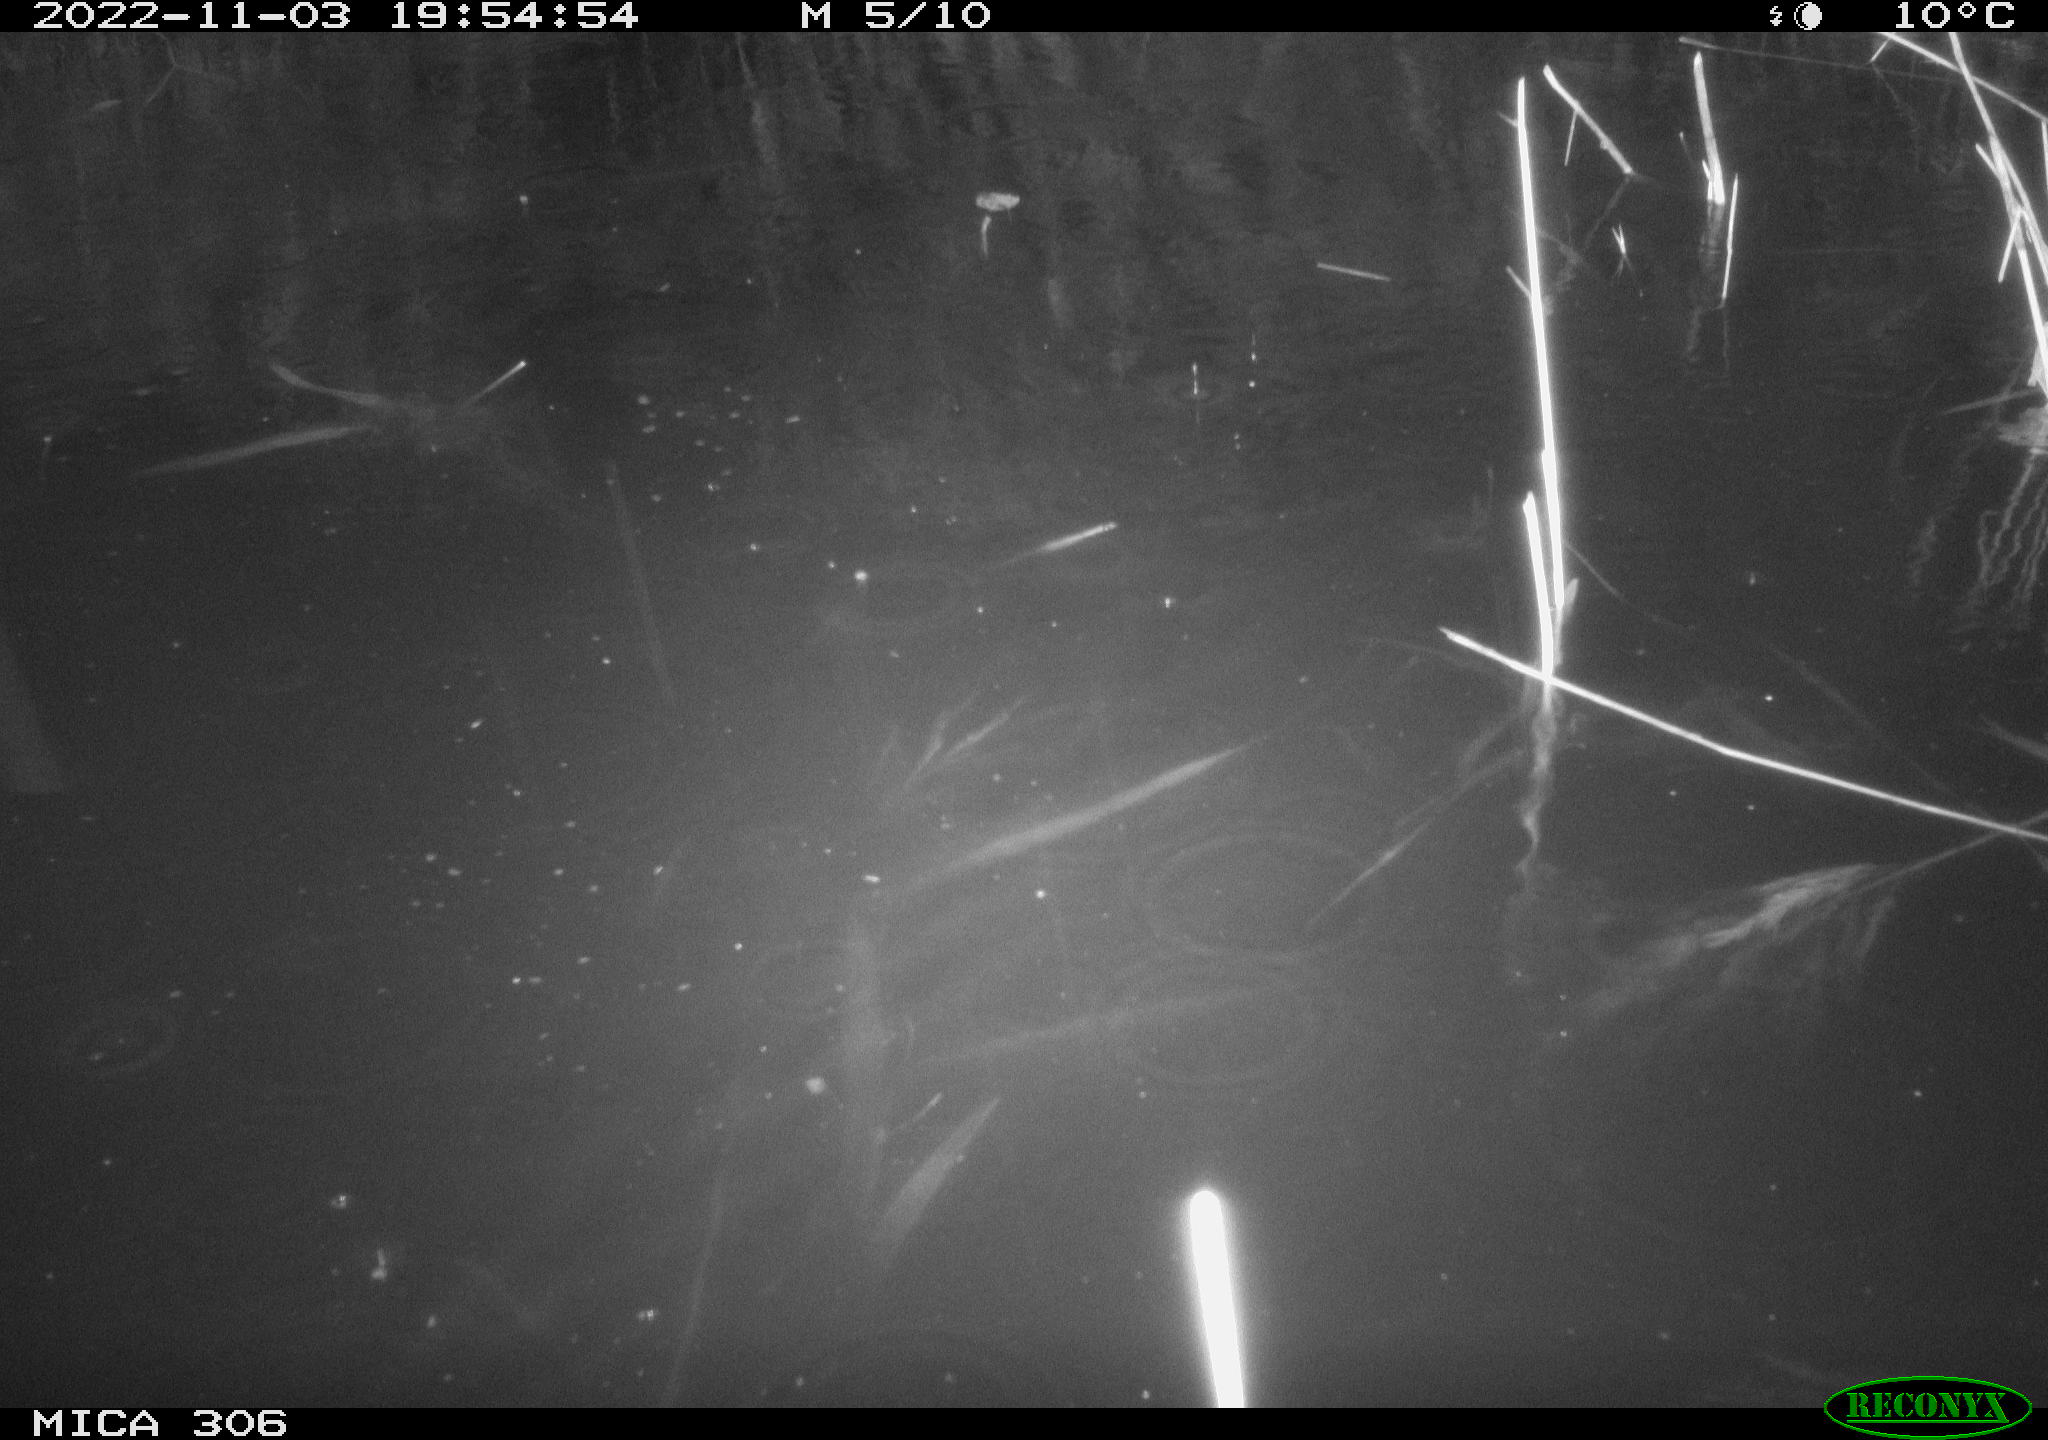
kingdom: Animalia
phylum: Chordata
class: Mammalia
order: Rodentia
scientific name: Rodentia
